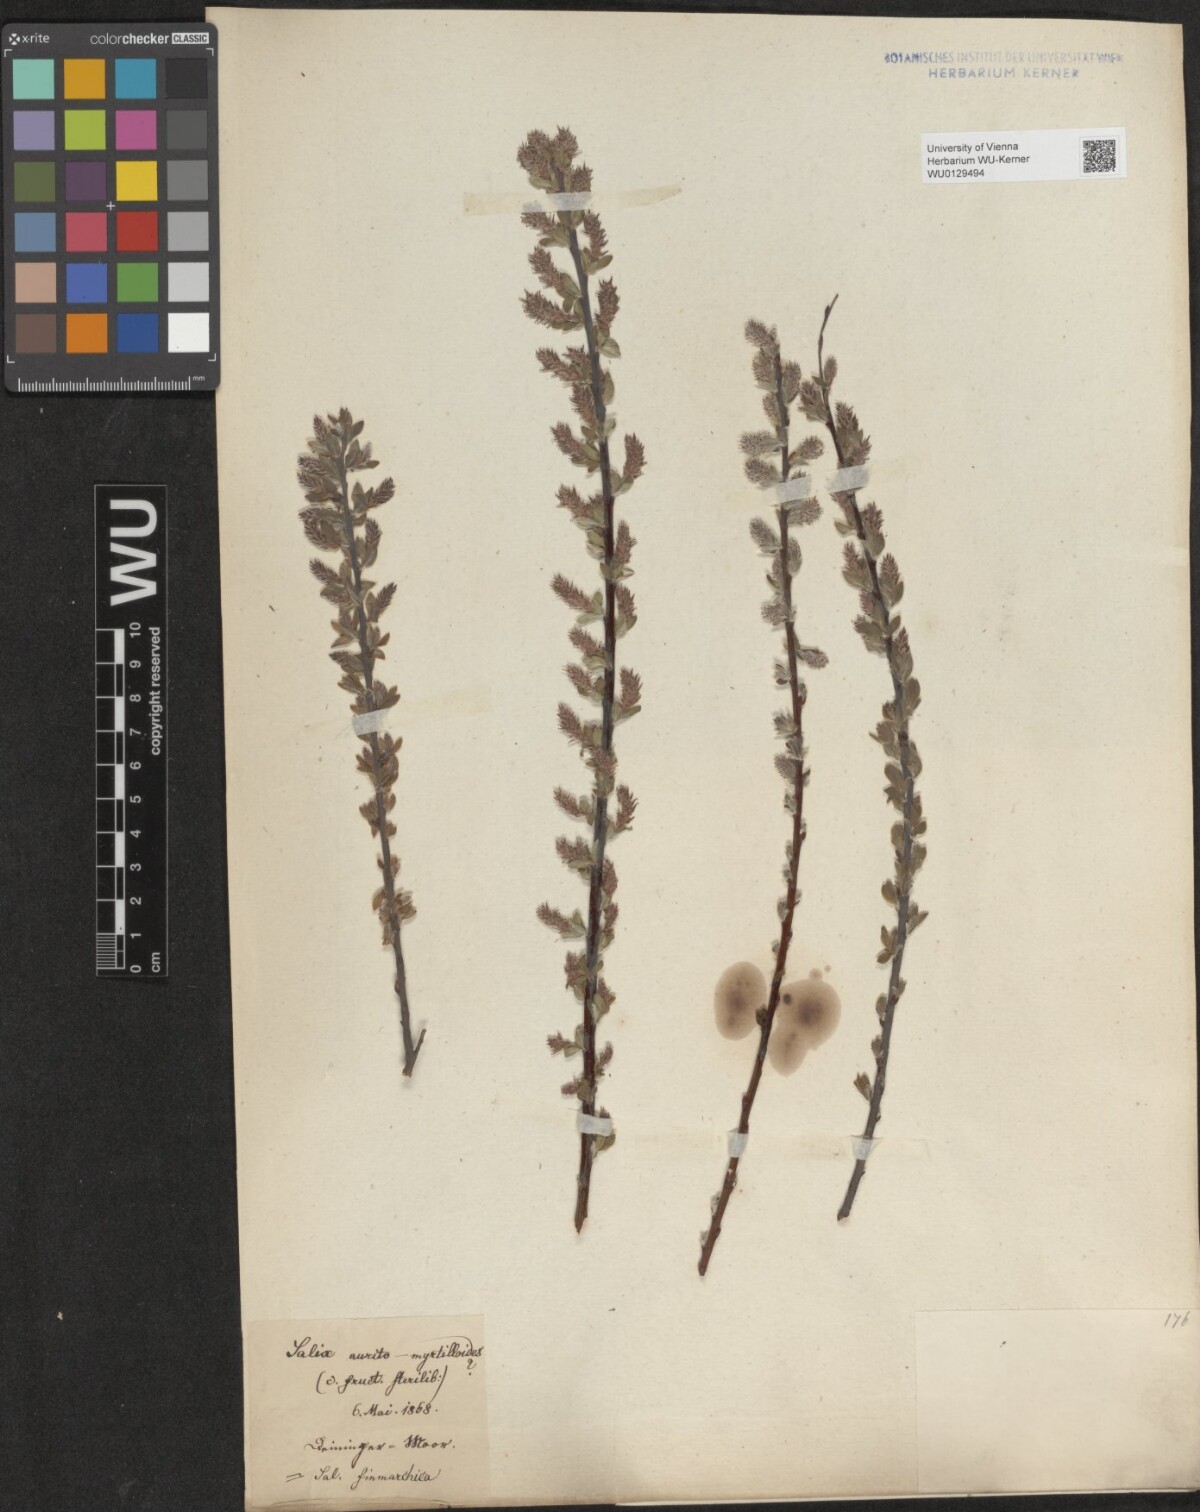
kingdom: Plantae
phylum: Tracheophyta
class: Magnoliopsida
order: Malpighiales
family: Salicaceae
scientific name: Salicaceae
